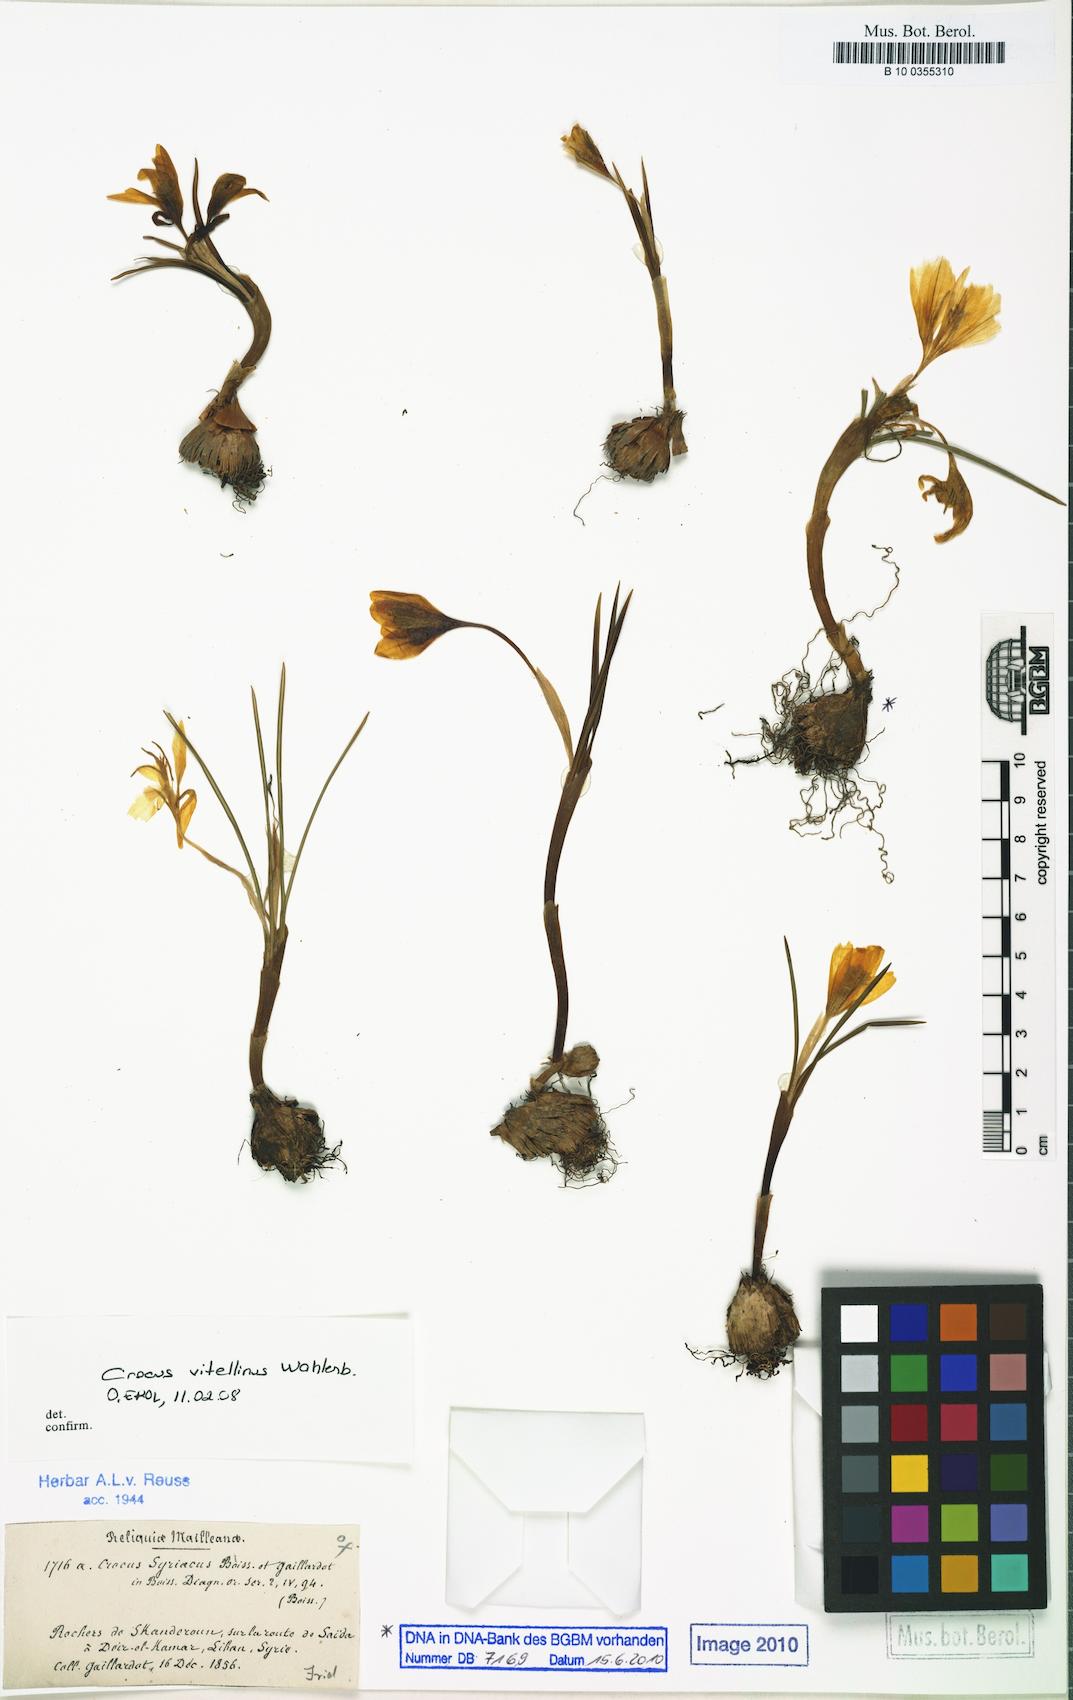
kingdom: Plantae
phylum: Tracheophyta
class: Liliopsida
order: Asparagales
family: Iridaceae
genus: Crocus
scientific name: Crocus vitellinus
